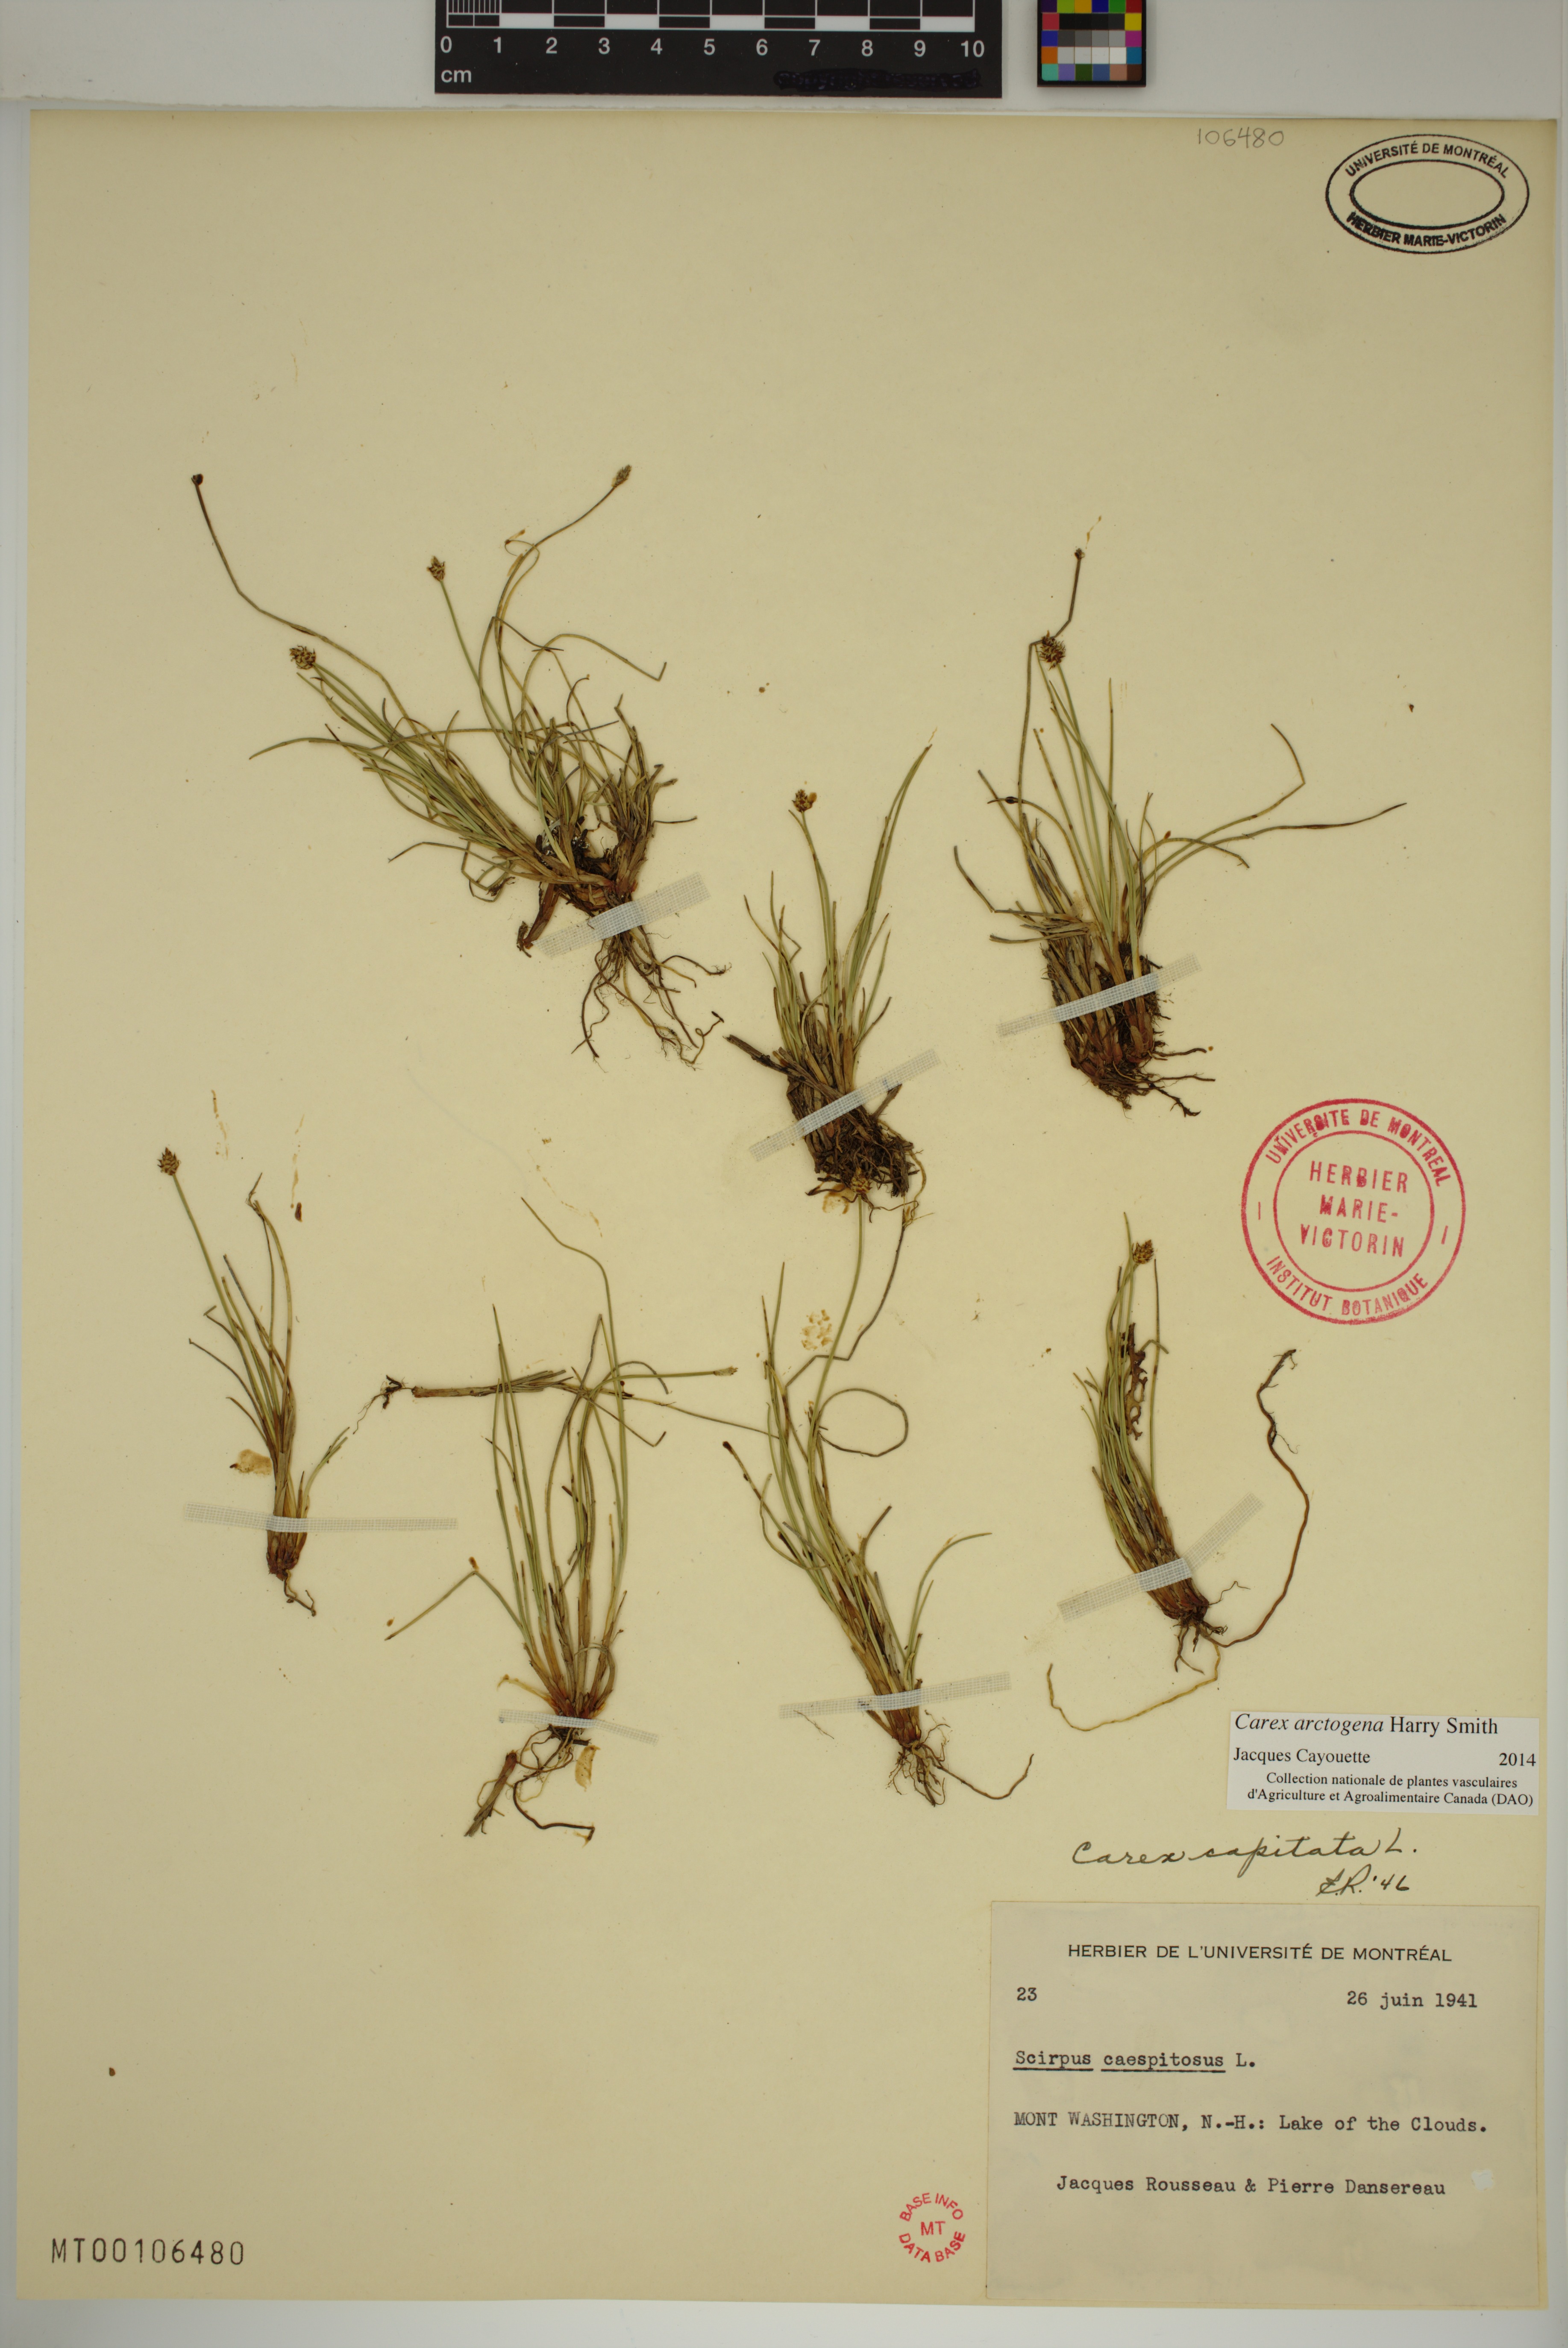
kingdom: Plantae
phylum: Tracheophyta
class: Liliopsida
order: Poales
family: Cyperaceae
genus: Carex
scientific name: Carex arctogena
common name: Black sedge
